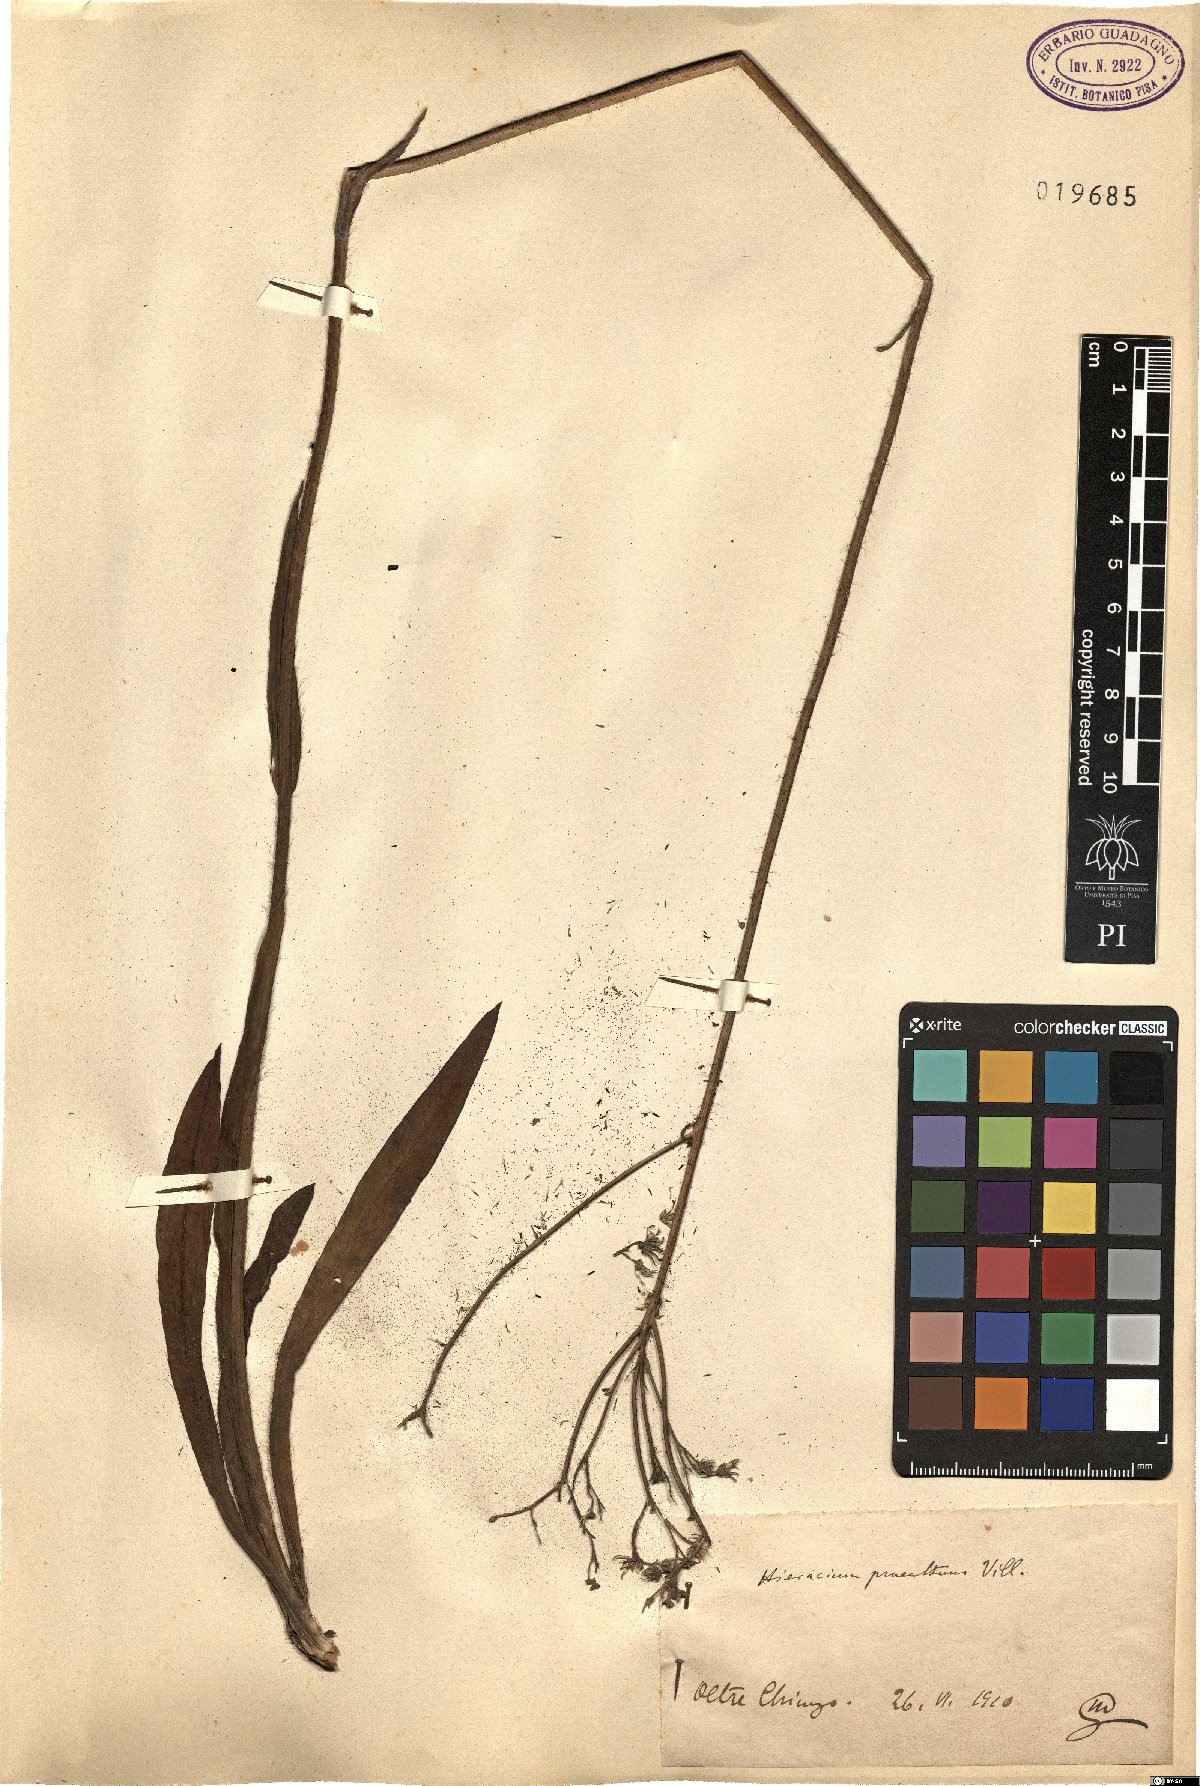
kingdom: Plantae
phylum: Tracheophyta
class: Magnoliopsida
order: Asterales
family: Asteraceae
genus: Pilosella
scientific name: Pilosella piloselloides
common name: Glaucous king-devil
